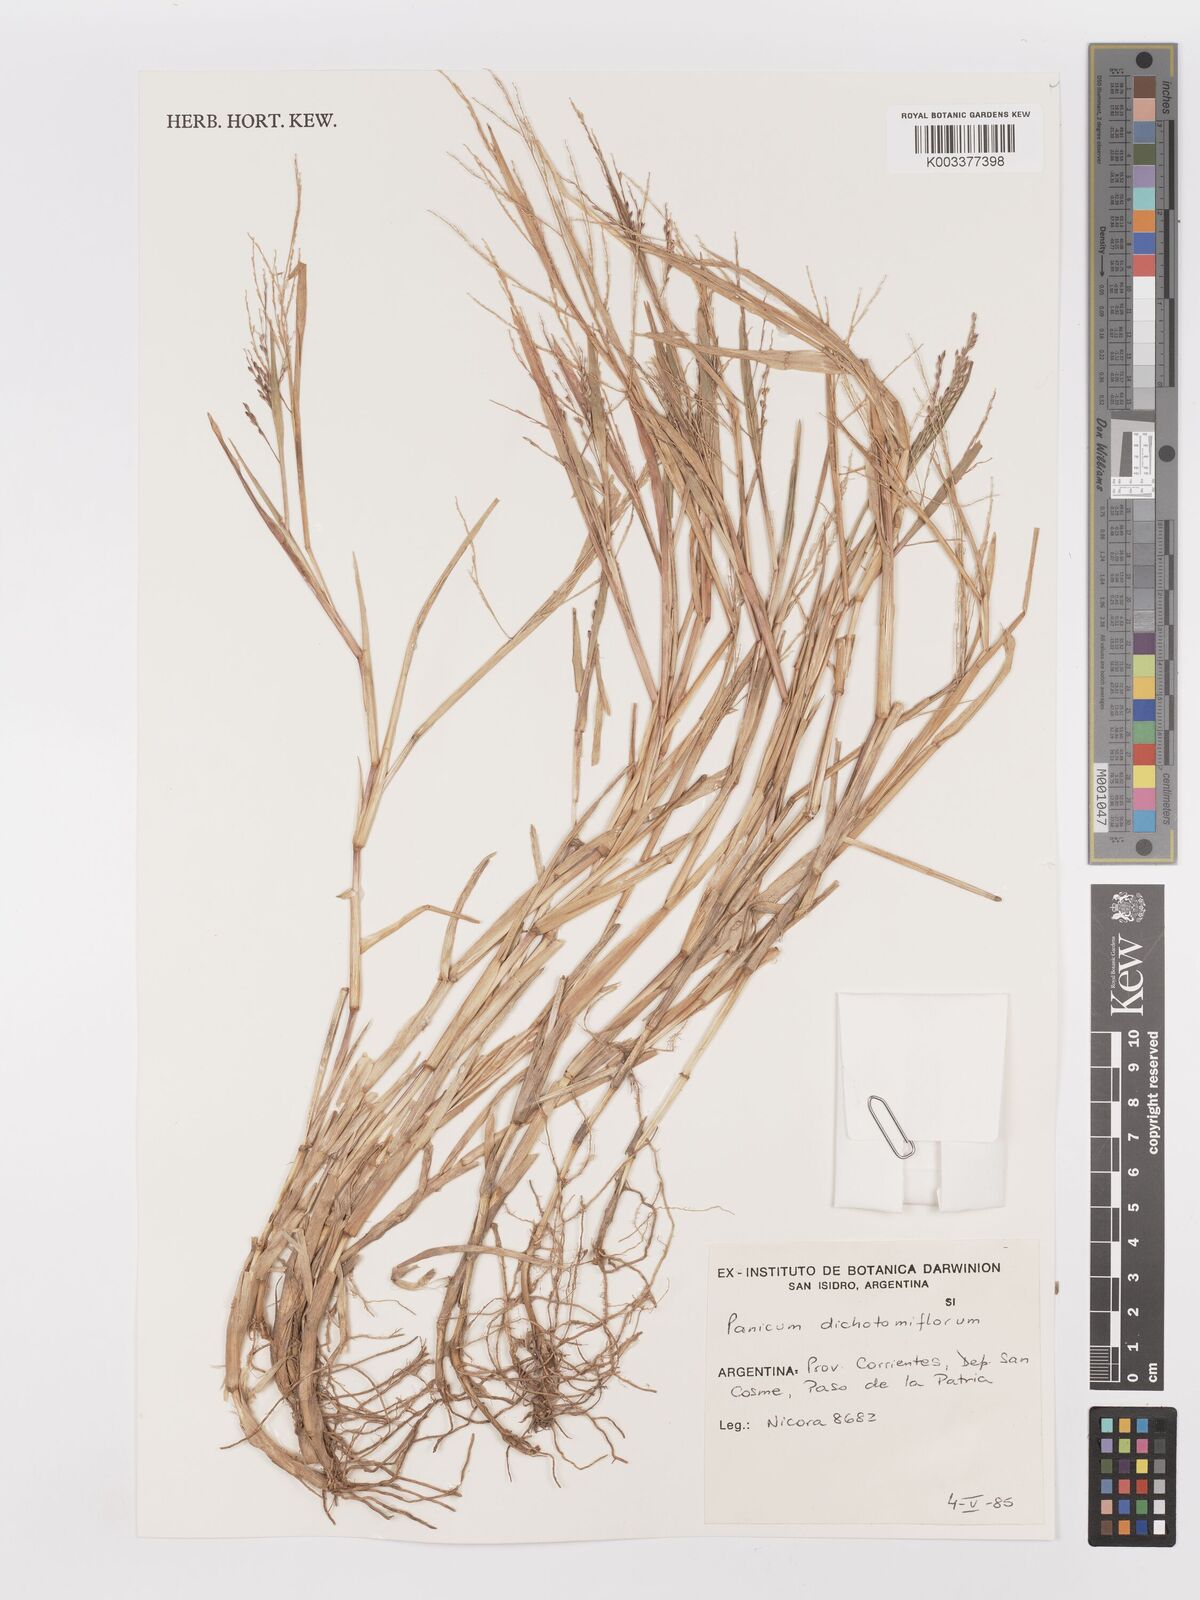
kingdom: Plantae
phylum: Tracheophyta
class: Liliopsida
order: Poales
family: Poaceae
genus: Panicum
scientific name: Panicum dichotomiflorum
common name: Autumn millet
